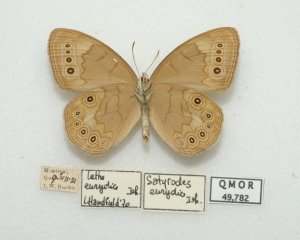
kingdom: Animalia
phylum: Arthropoda
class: Insecta
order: Lepidoptera
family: Nymphalidae
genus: Lethe
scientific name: Lethe eurydice
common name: Eyed Brown
